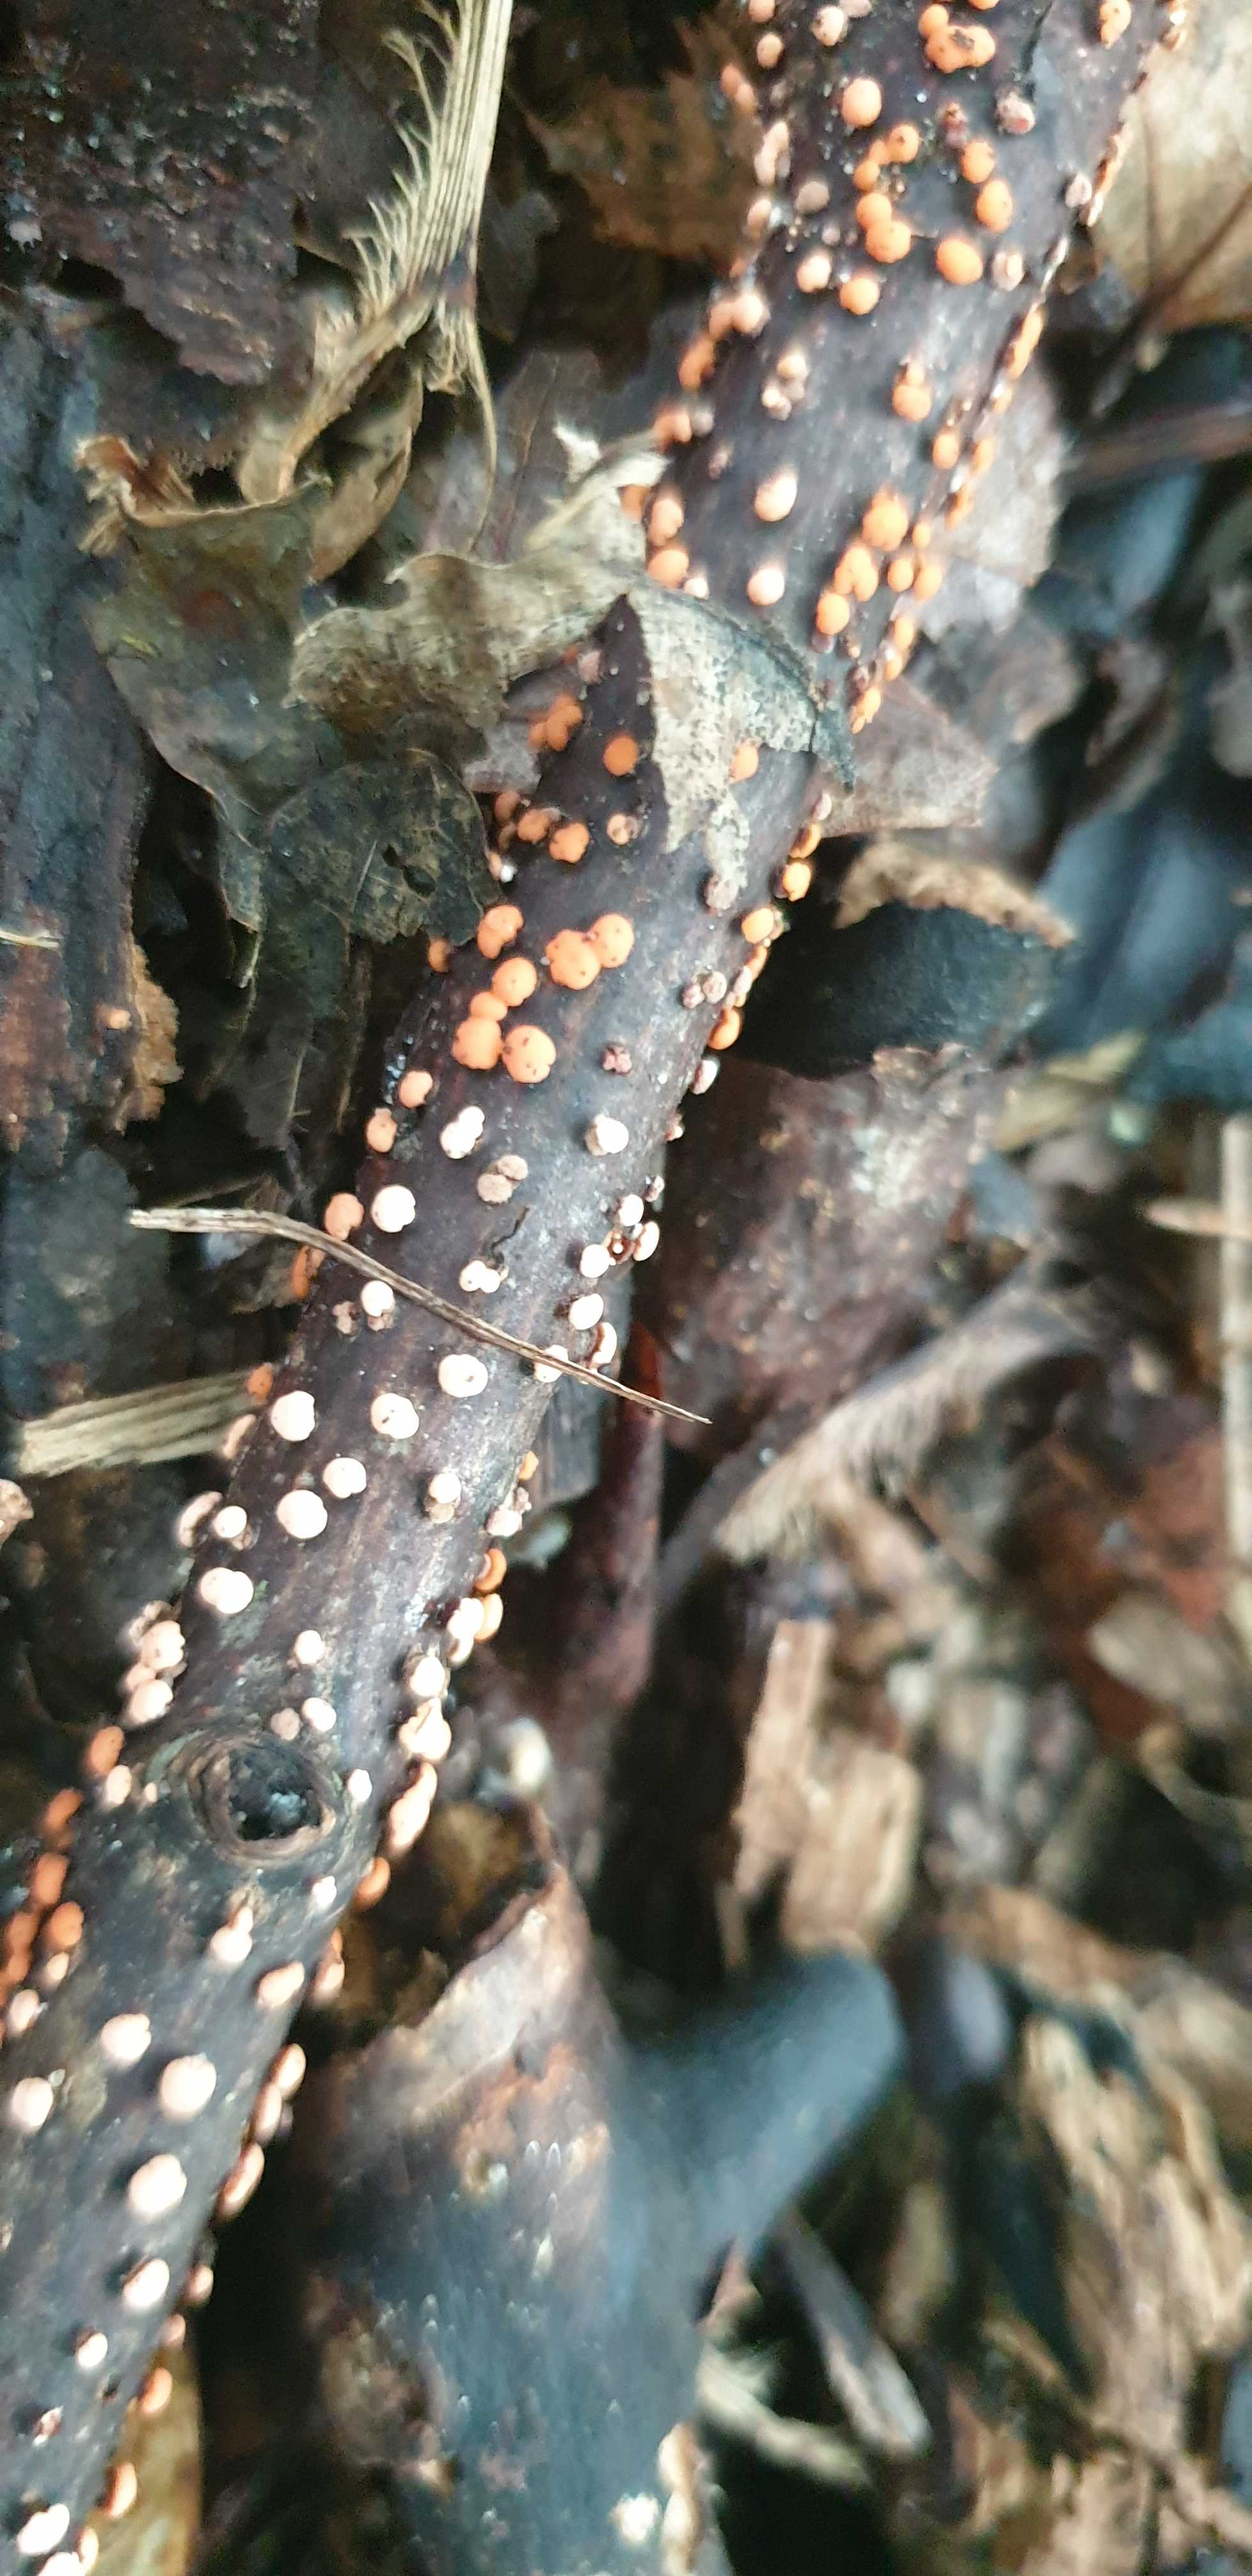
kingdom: Fungi
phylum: Ascomycota
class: Sordariomycetes
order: Hypocreales
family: Nectriaceae
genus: Nectria
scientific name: Nectria cinnabarina
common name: almindelig cinnobersvamp
